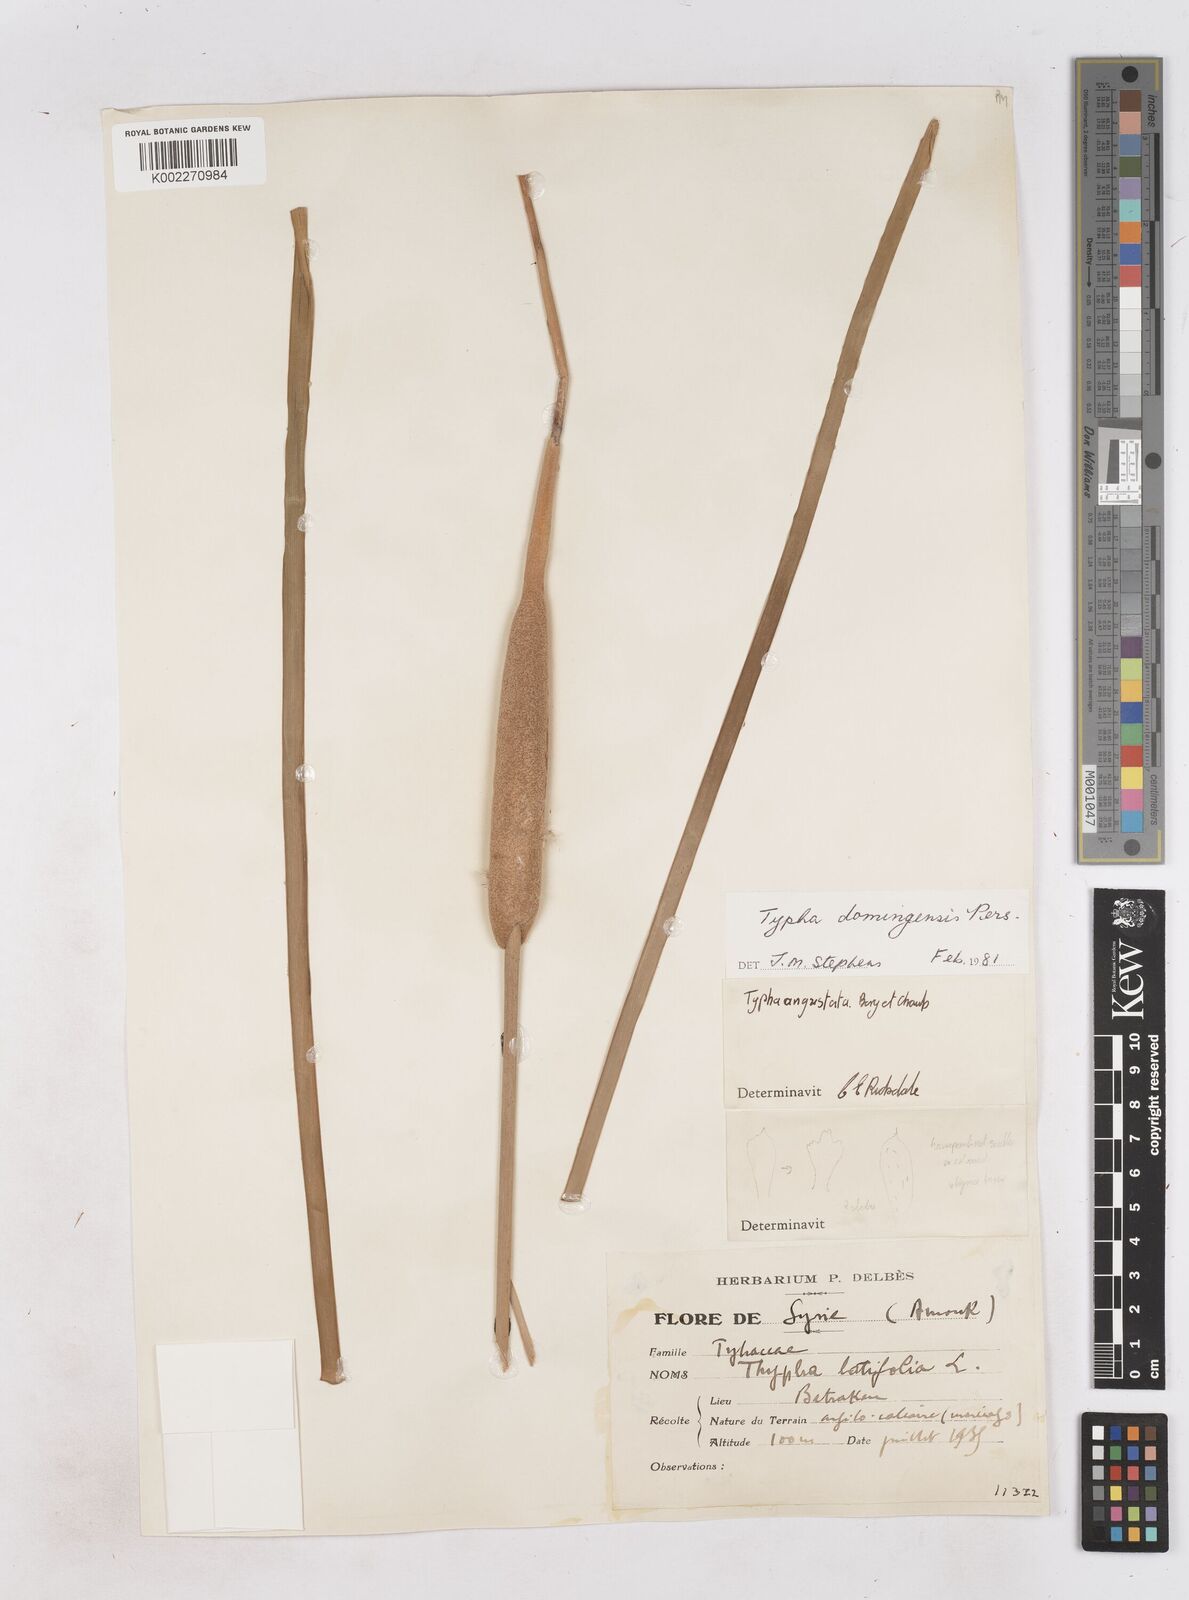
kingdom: Plantae
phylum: Tracheophyta
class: Liliopsida
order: Poales
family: Typhaceae
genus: Typha
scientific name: Typha domingensis
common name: Southern cattail
